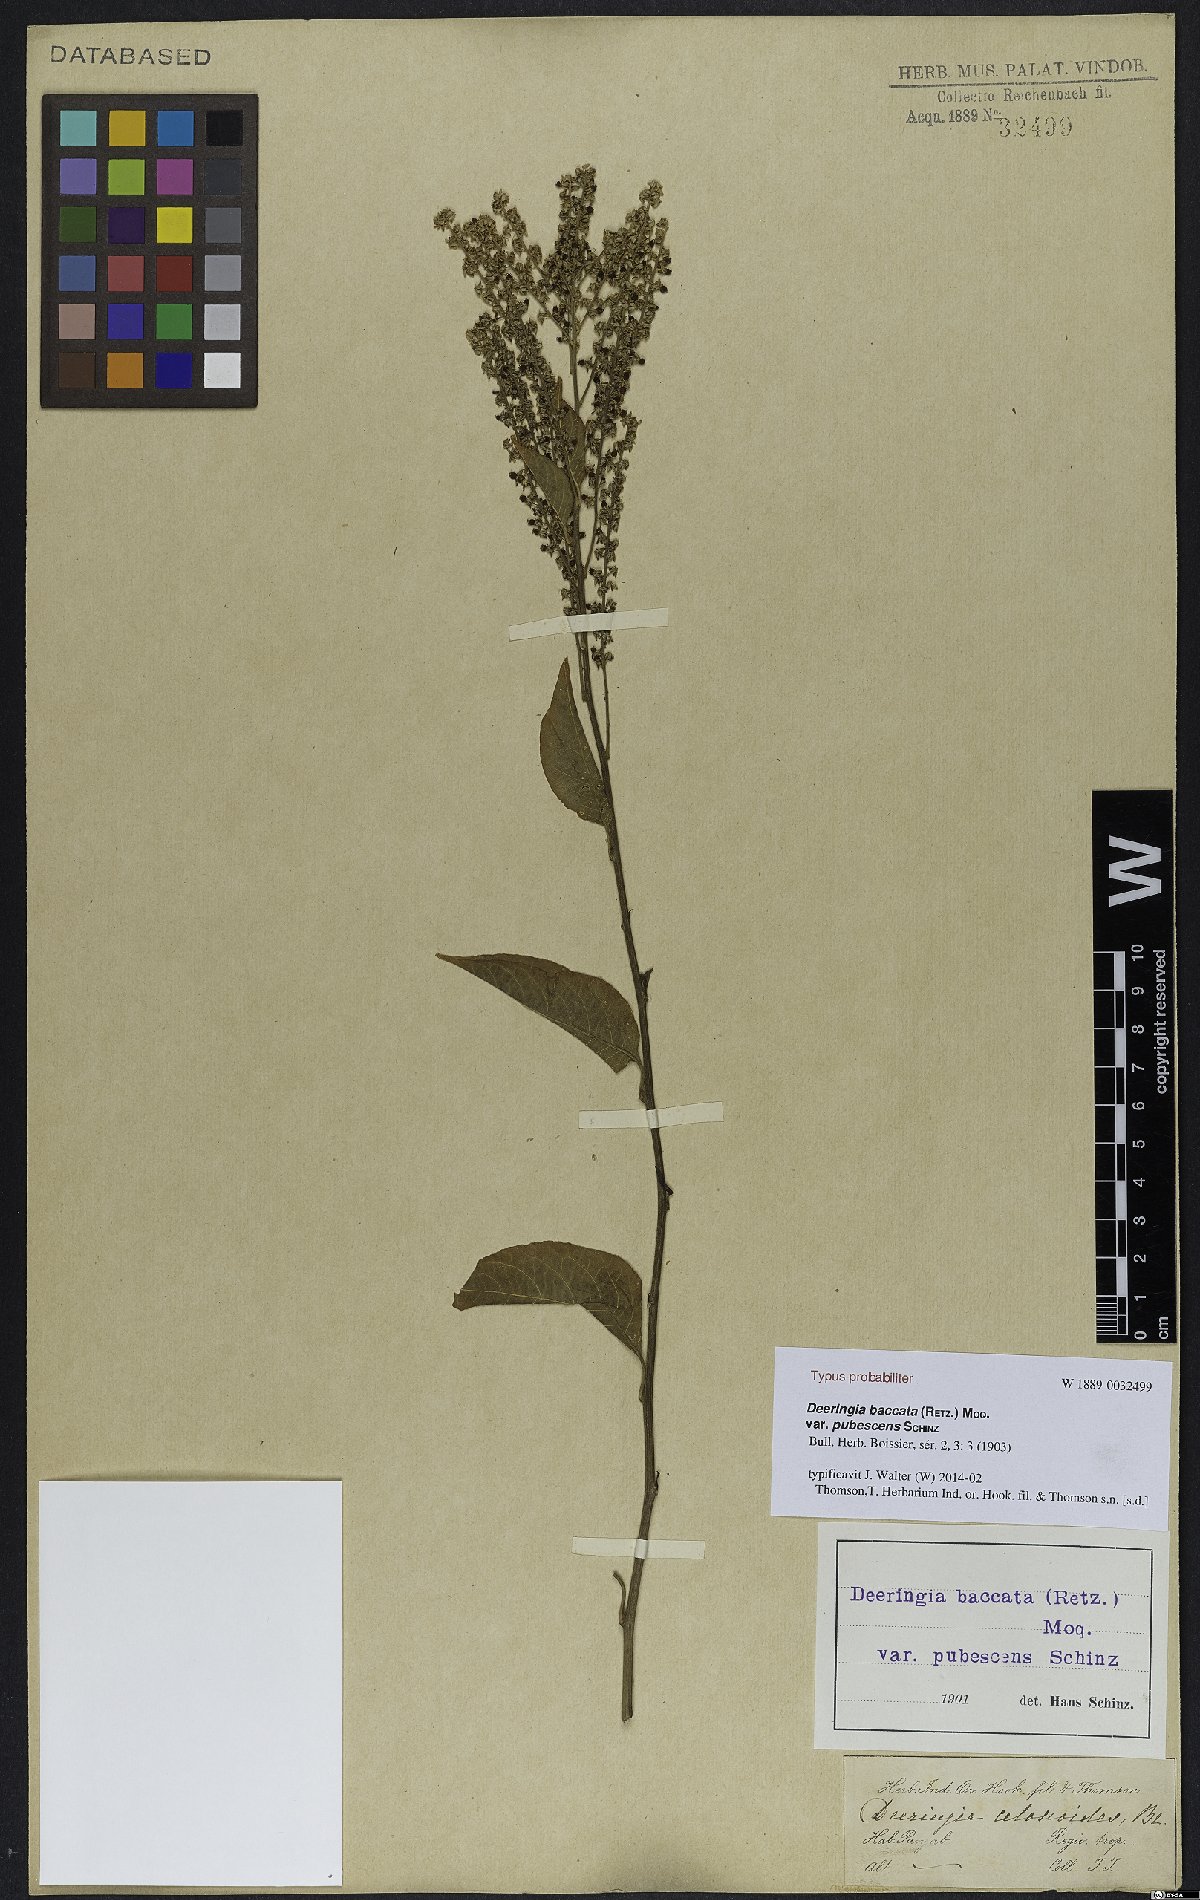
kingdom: Plantae
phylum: Tracheophyta
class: Magnoliopsida
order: Caryophyllales
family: Amaranthaceae
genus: Deeringia
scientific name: Deeringia amaranthoides
